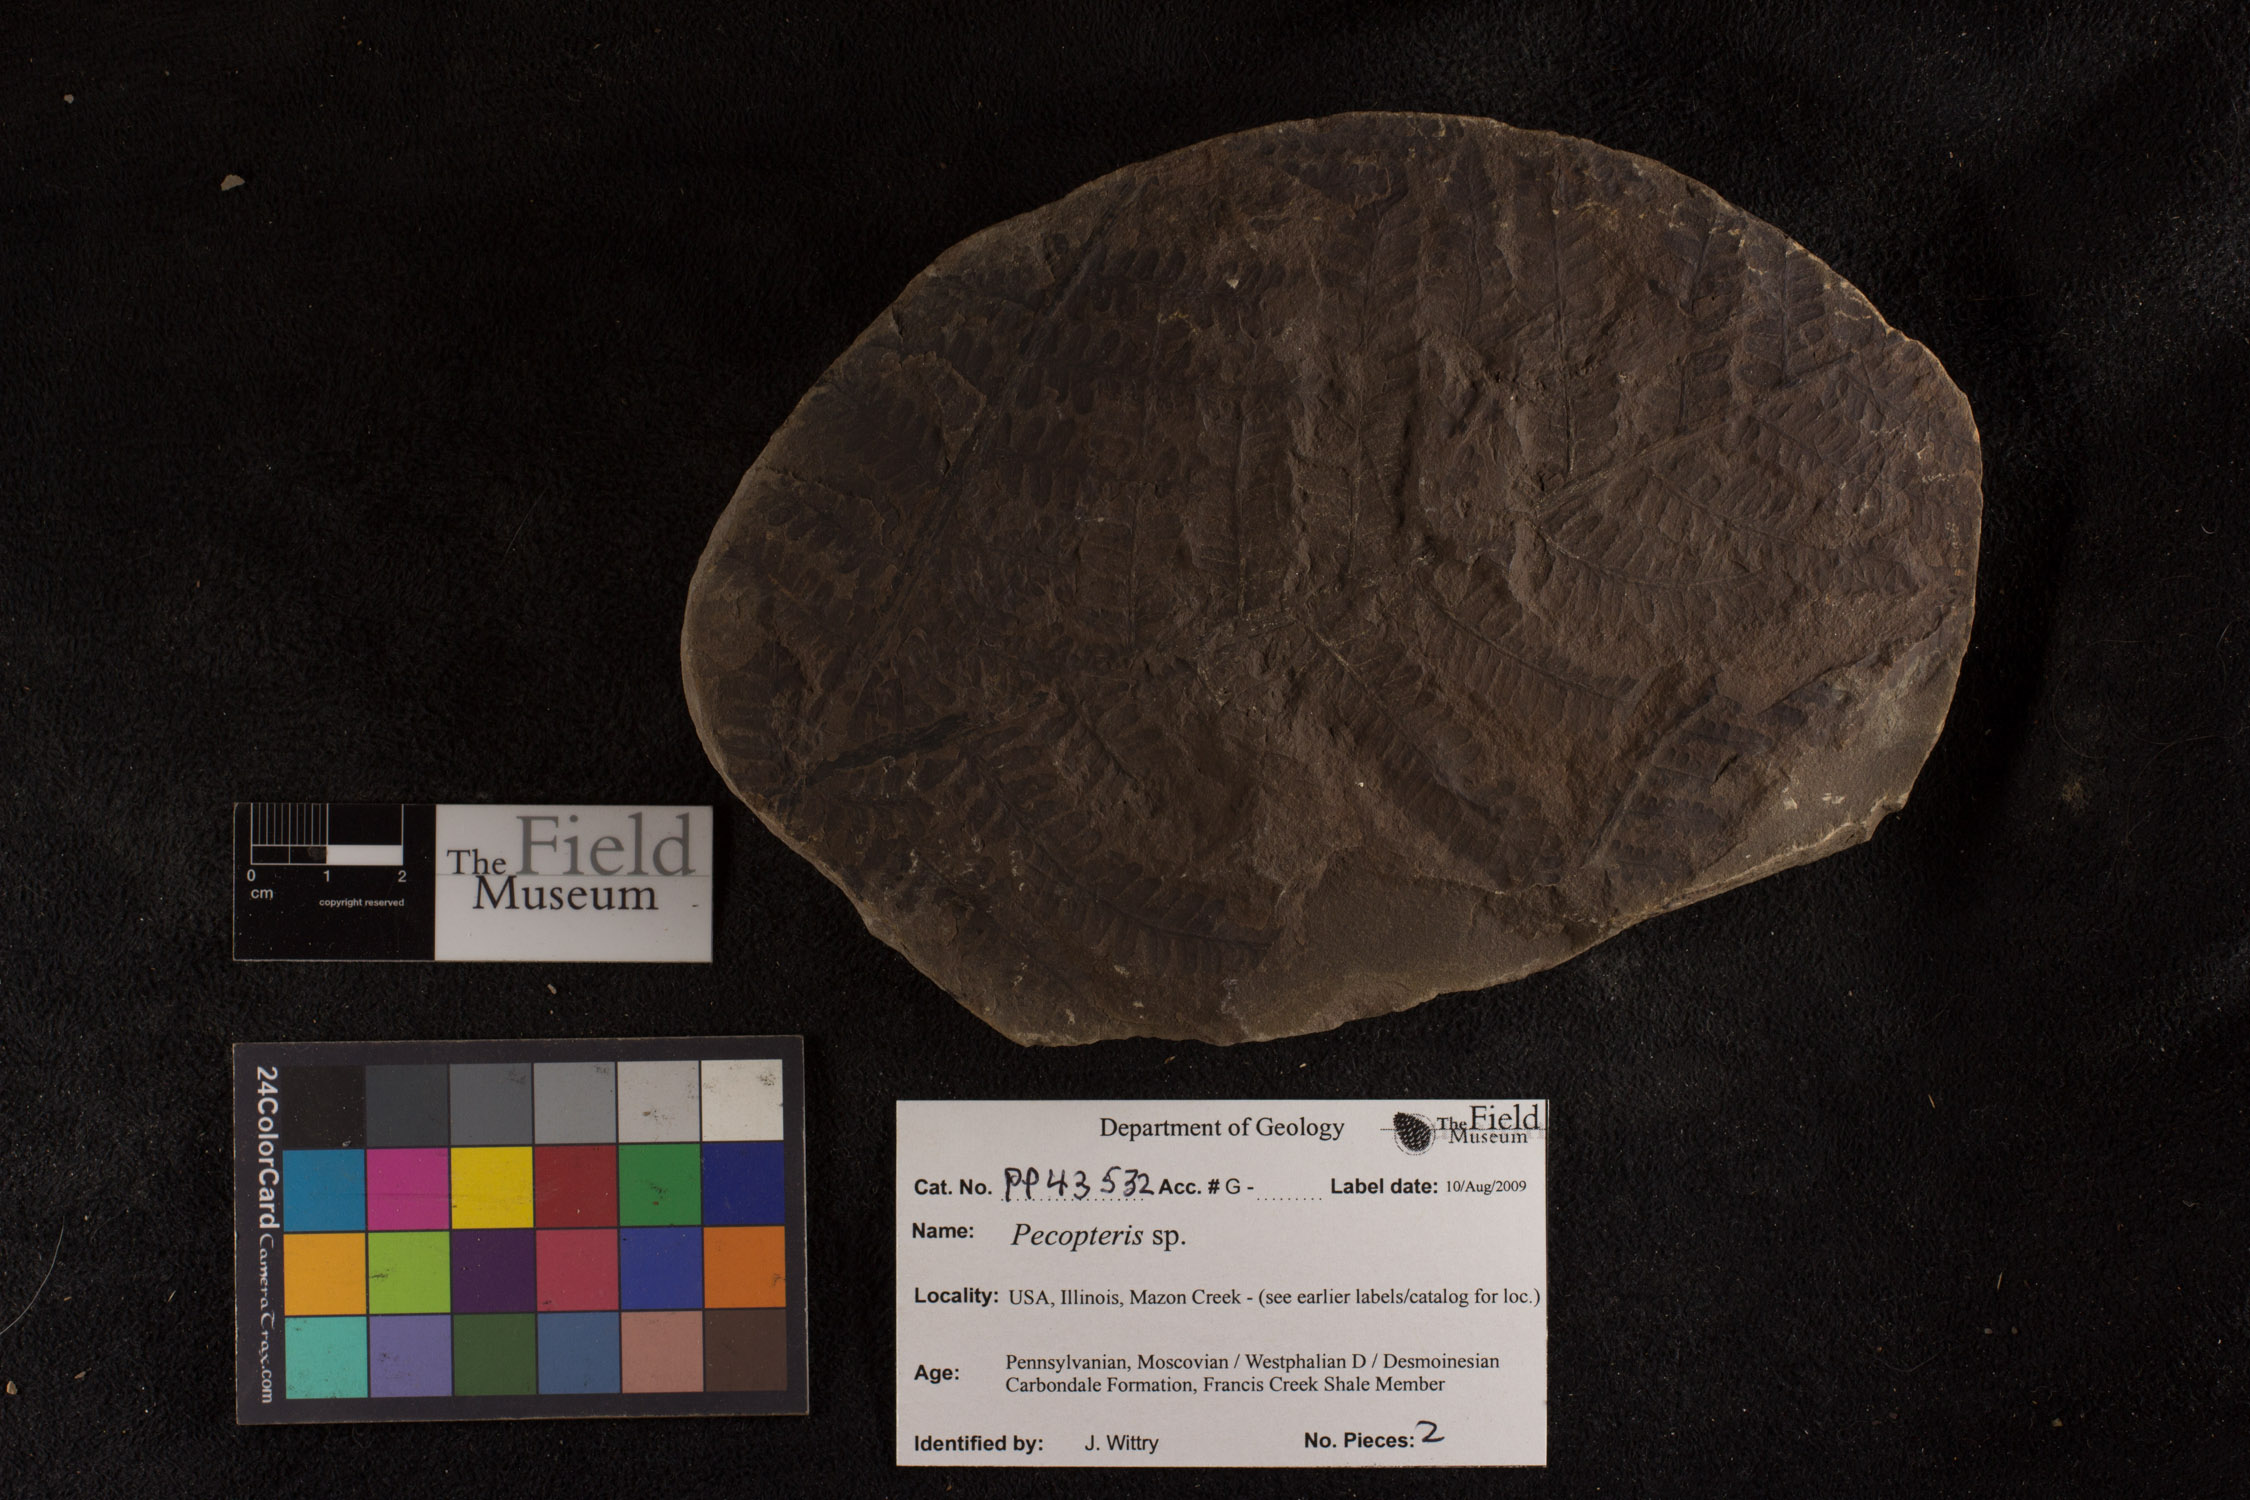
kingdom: Plantae
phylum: Tracheophyta
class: Polypodiopsida
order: Marattiales
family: Asterothecaceae
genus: Pecopteris
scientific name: Pecopteris
